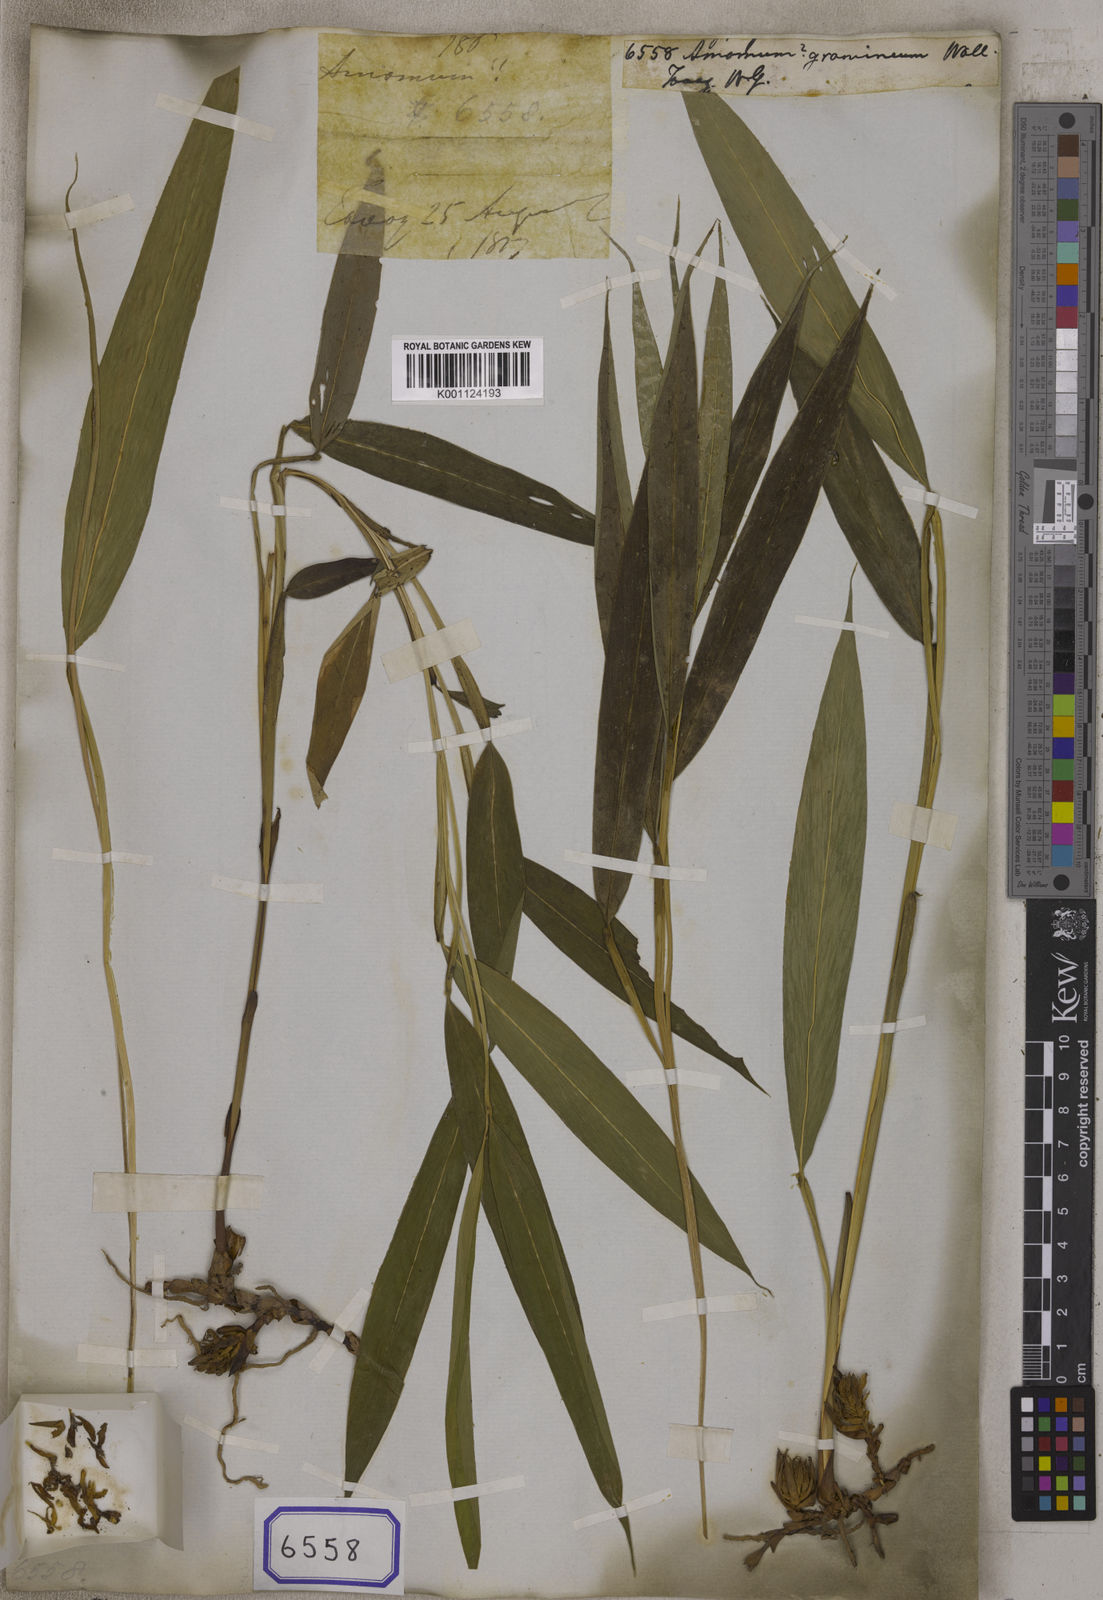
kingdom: Plantae
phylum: Tracheophyta
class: Liliopsida
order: Zingiberales
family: Zingiberaceae
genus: Amomum
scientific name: Amomum
